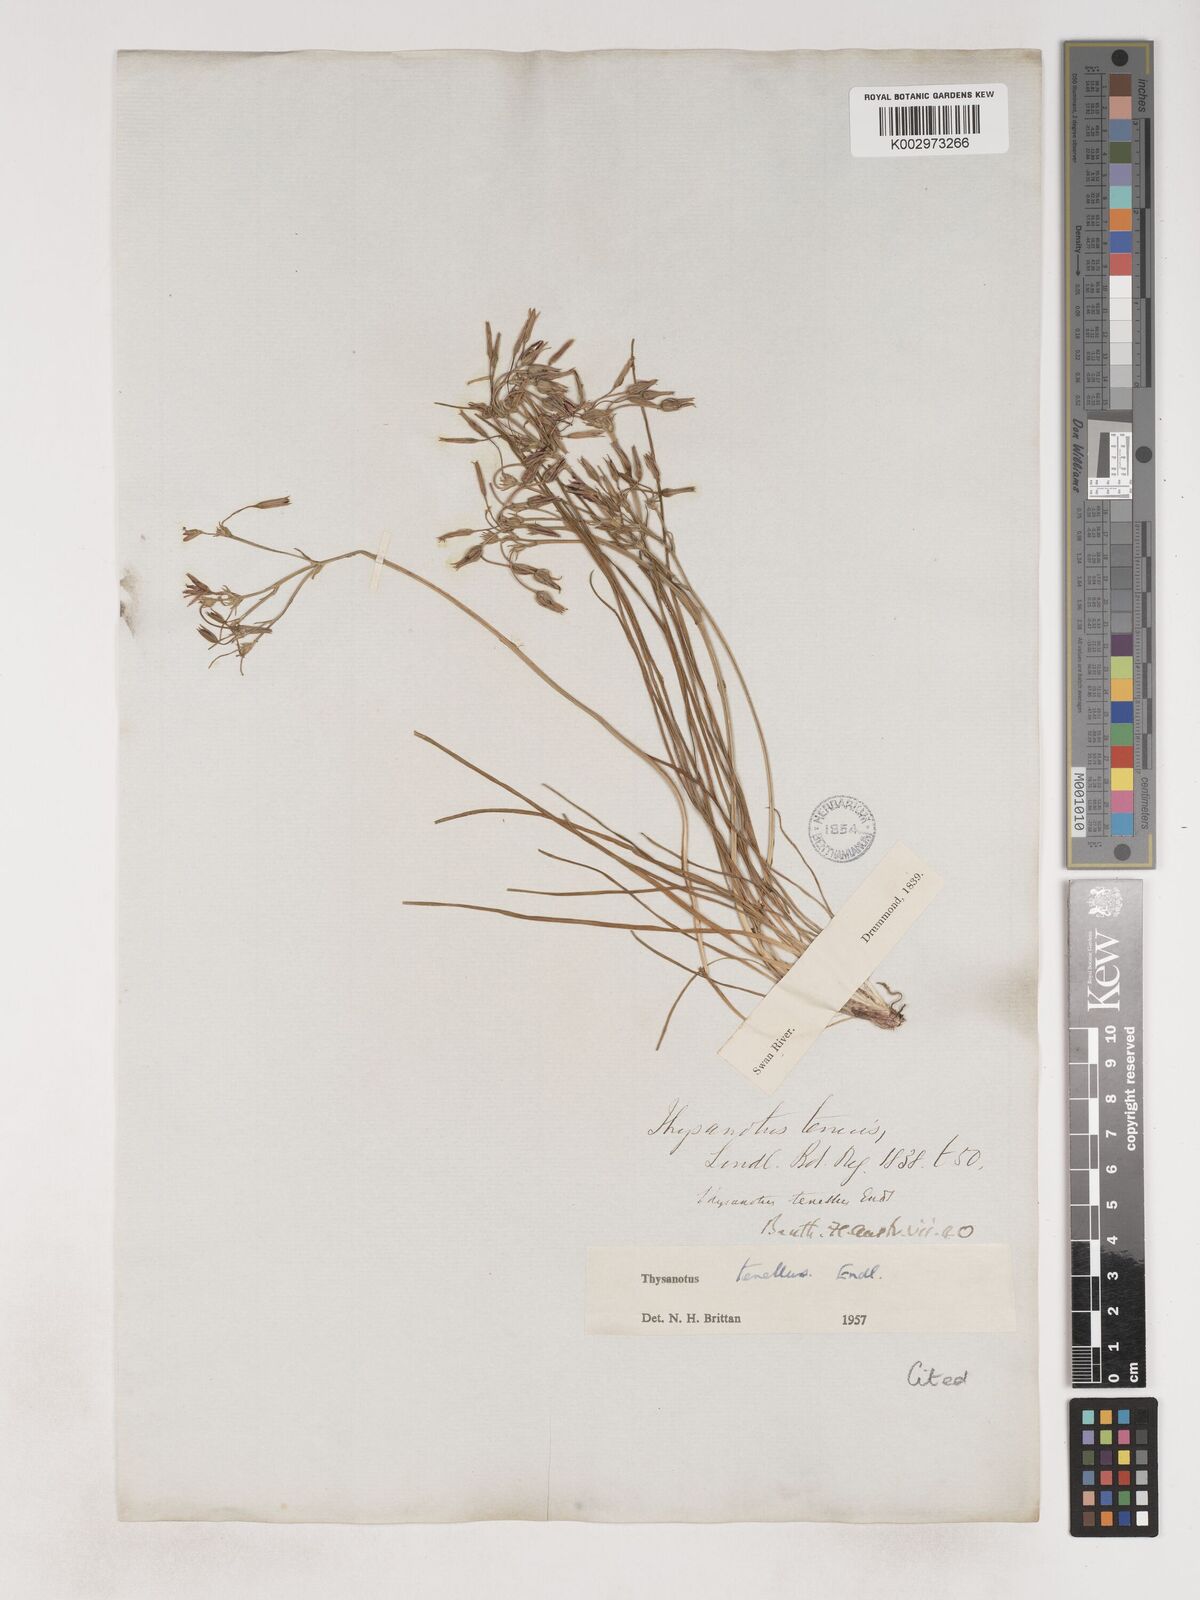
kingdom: Plantae
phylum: Tracheophyta
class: Liliopsida
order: Asparagales
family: Asparagaceae
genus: Thysanotus
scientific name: Thysanotus tenellus
